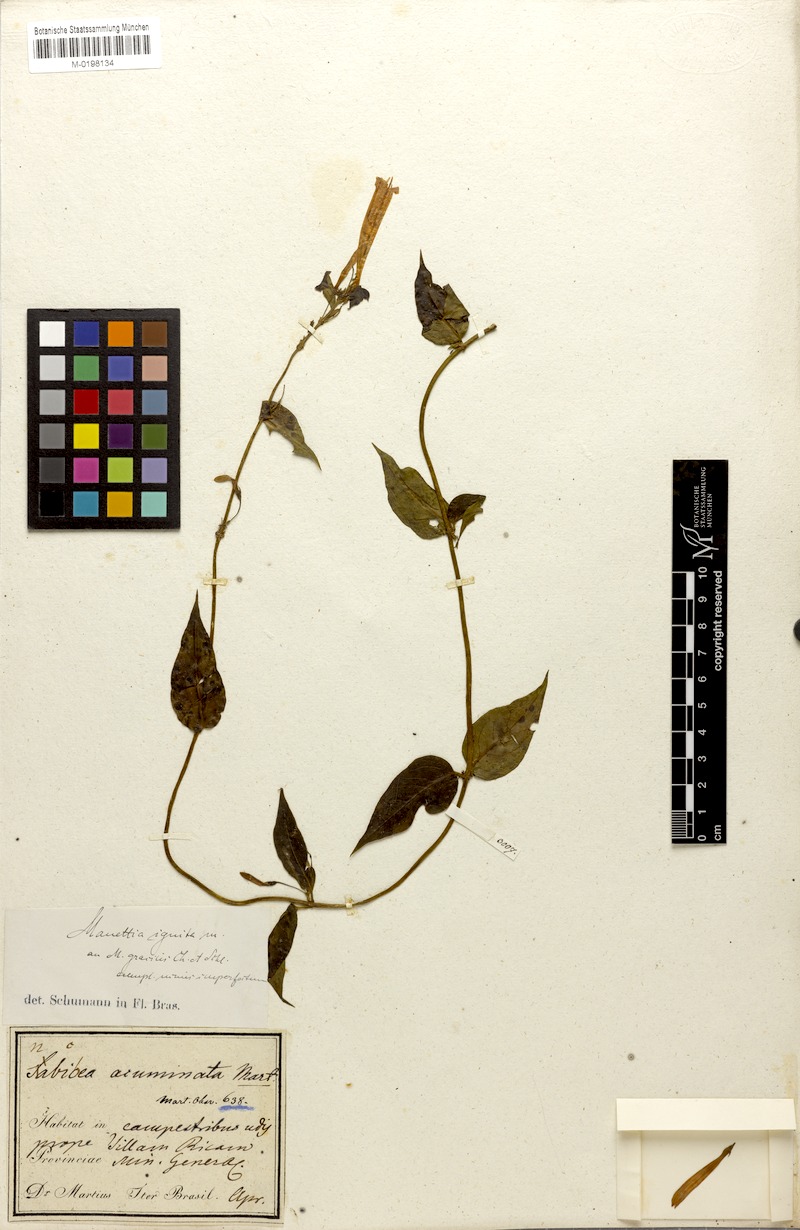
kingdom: Plantae
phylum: Tracheophyta
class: Magnoliopsida
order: Gentianales
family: Rubiaceae
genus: Manettia
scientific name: Manettia cordifolia
